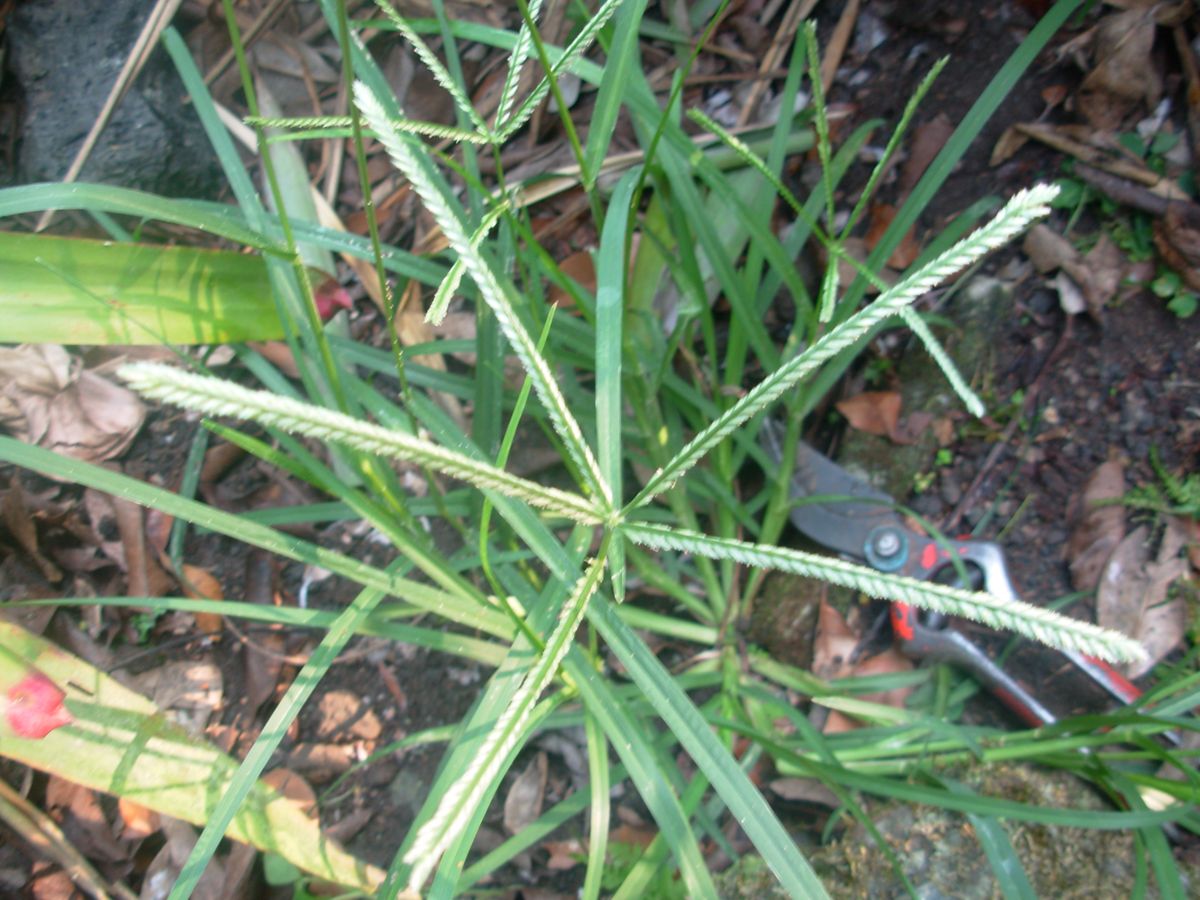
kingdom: Plantae
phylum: Tracheophyta
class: Liliopsida
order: Poales
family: Poaceae
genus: Eleusine
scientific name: Eleusine indica
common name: Yard-grass
